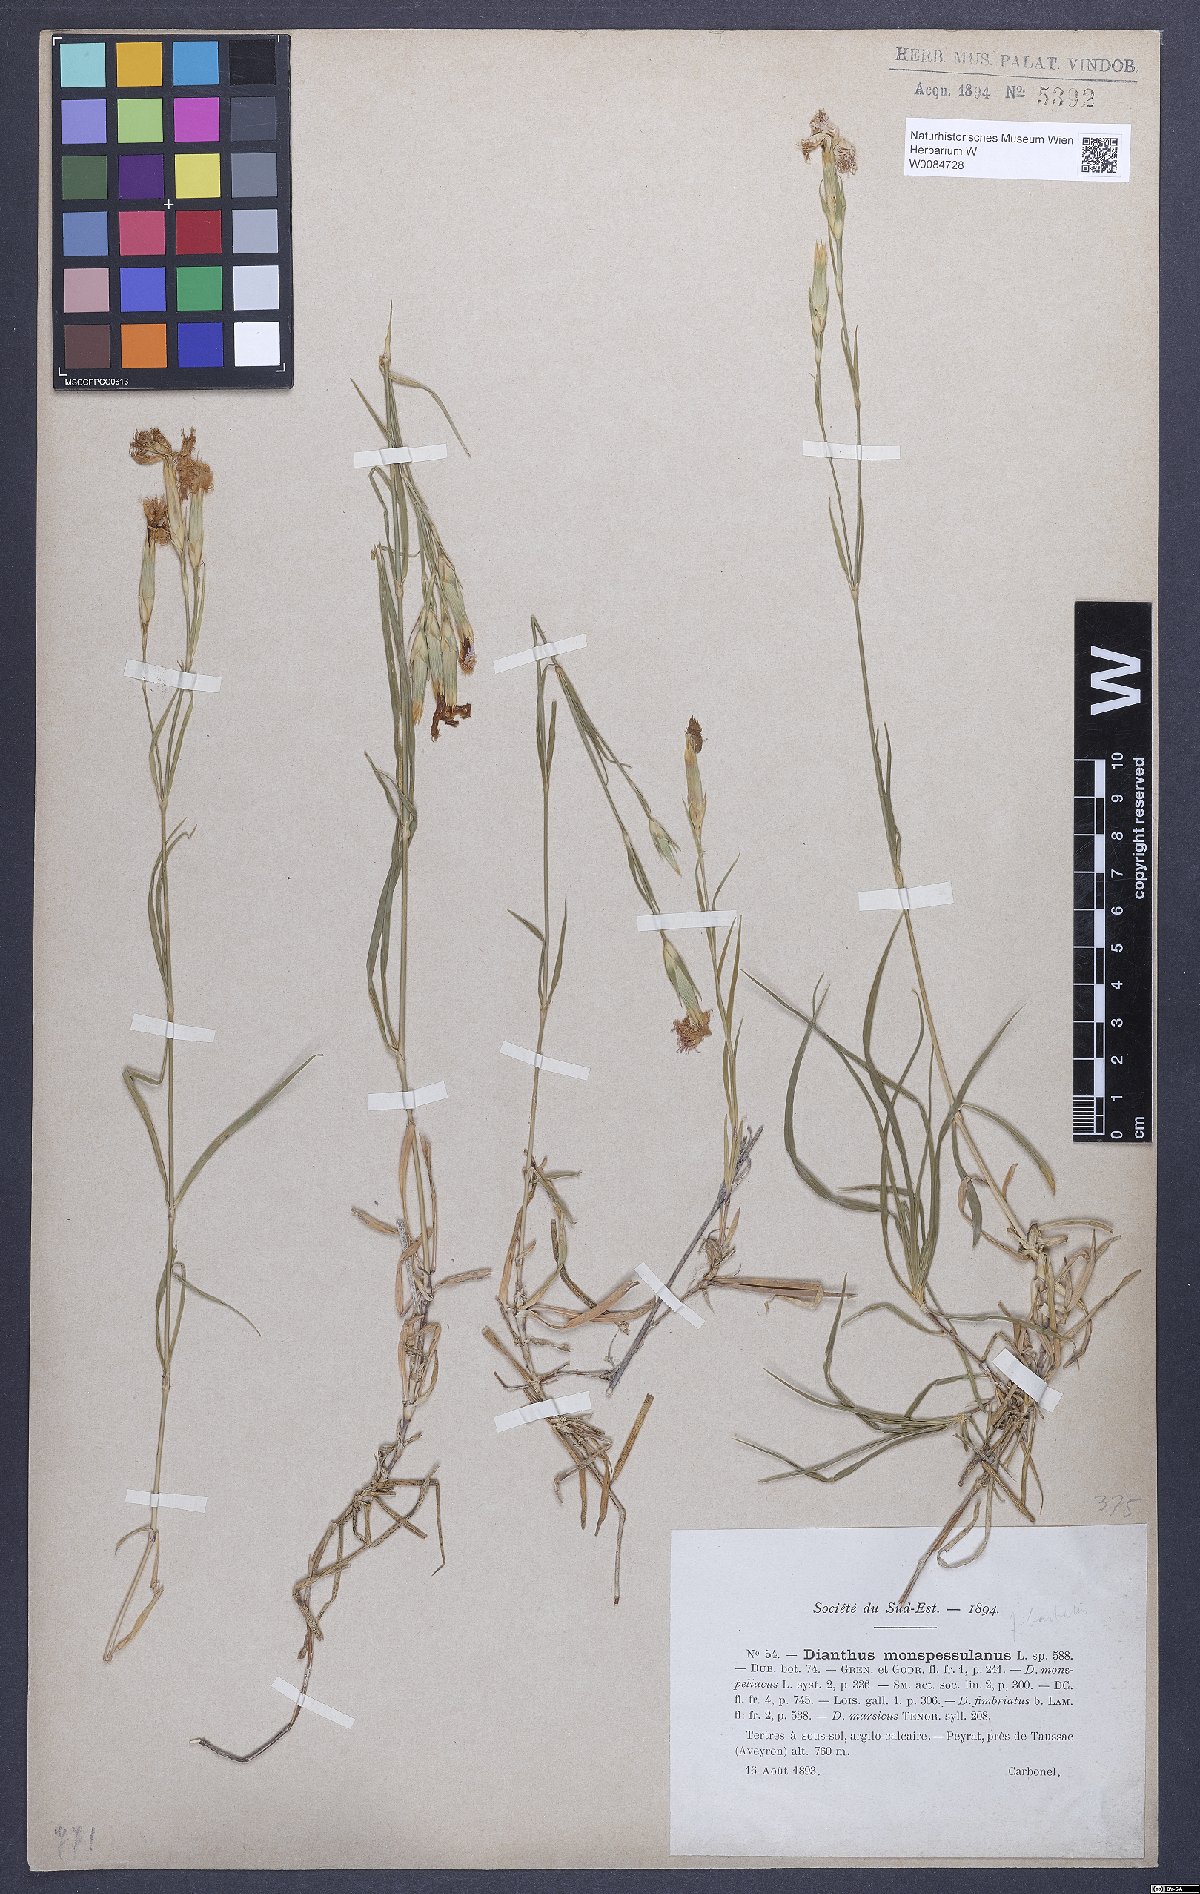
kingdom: Plantae
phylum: Tracheophyta
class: Magnoliopsida
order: Caryophyllales
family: Caryophyllaceae
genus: Dianthus
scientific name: Dianthus hyssopifolius
